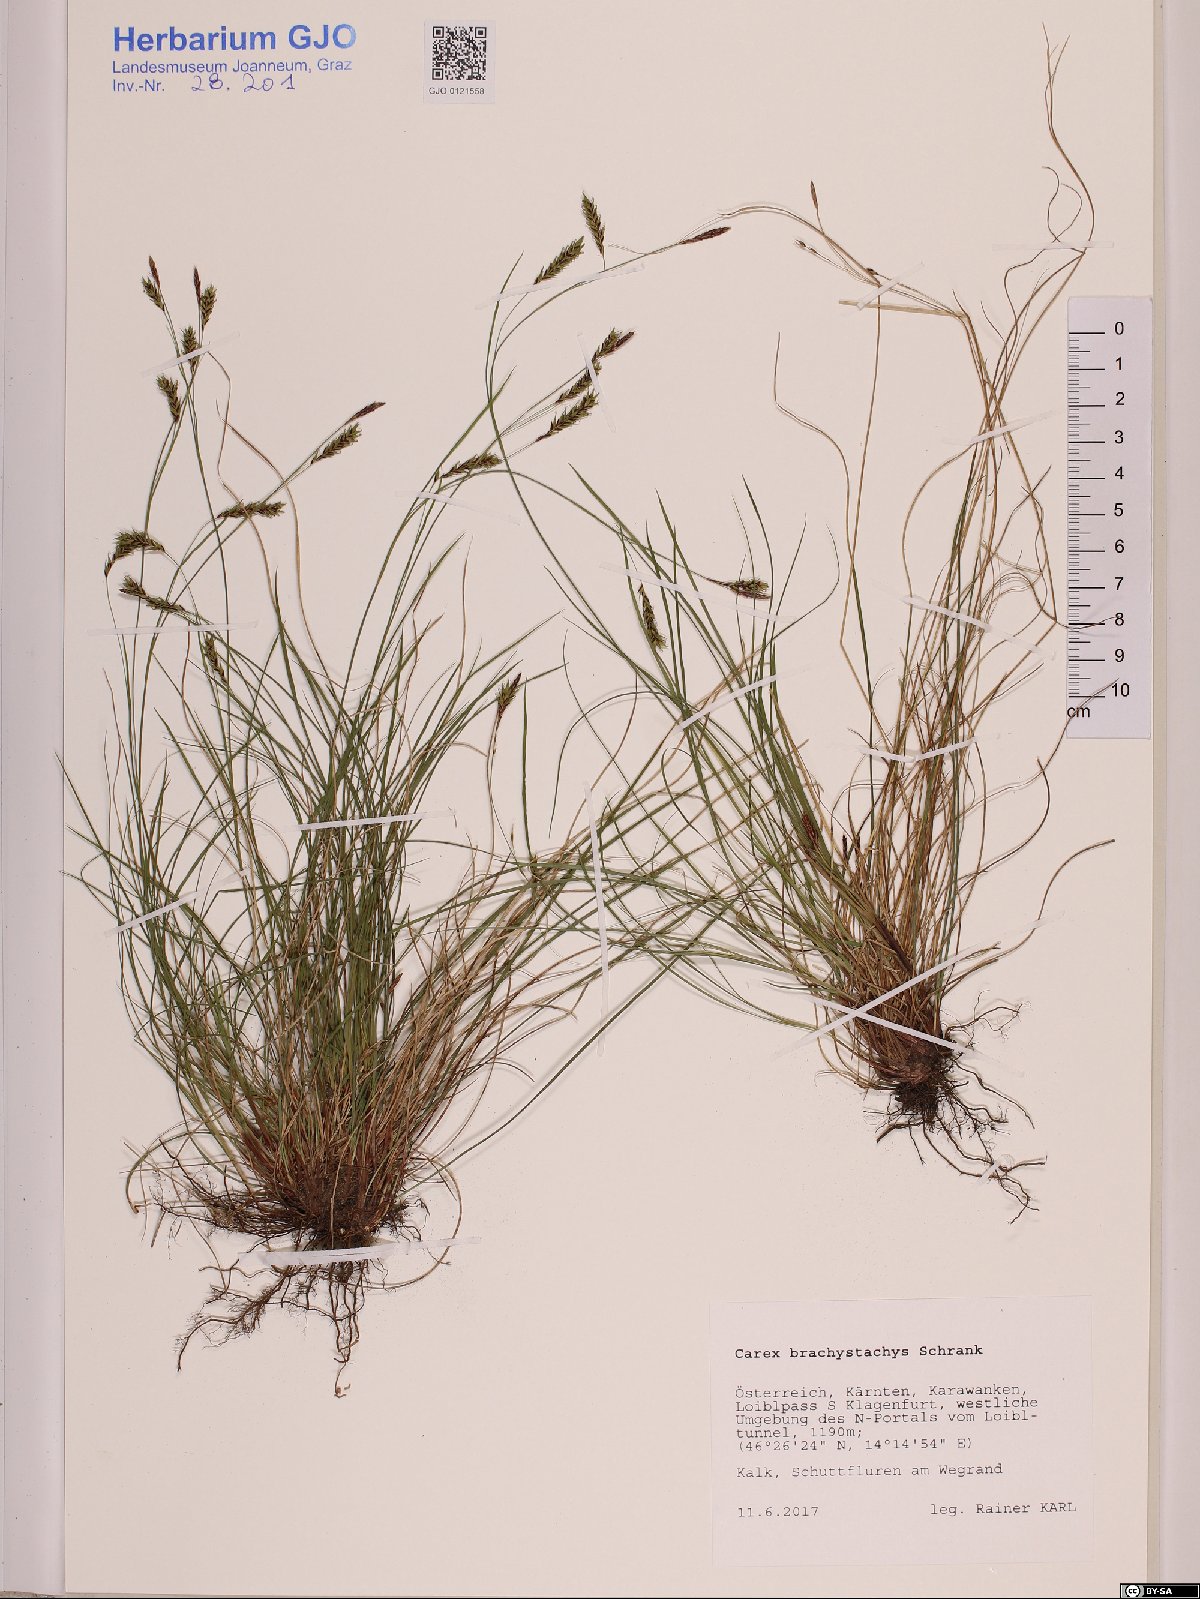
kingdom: Plantae
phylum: Tracheophyta
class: Liliopsida
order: Poales
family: Cyperaceae
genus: Carex
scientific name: Carex brachystachys
